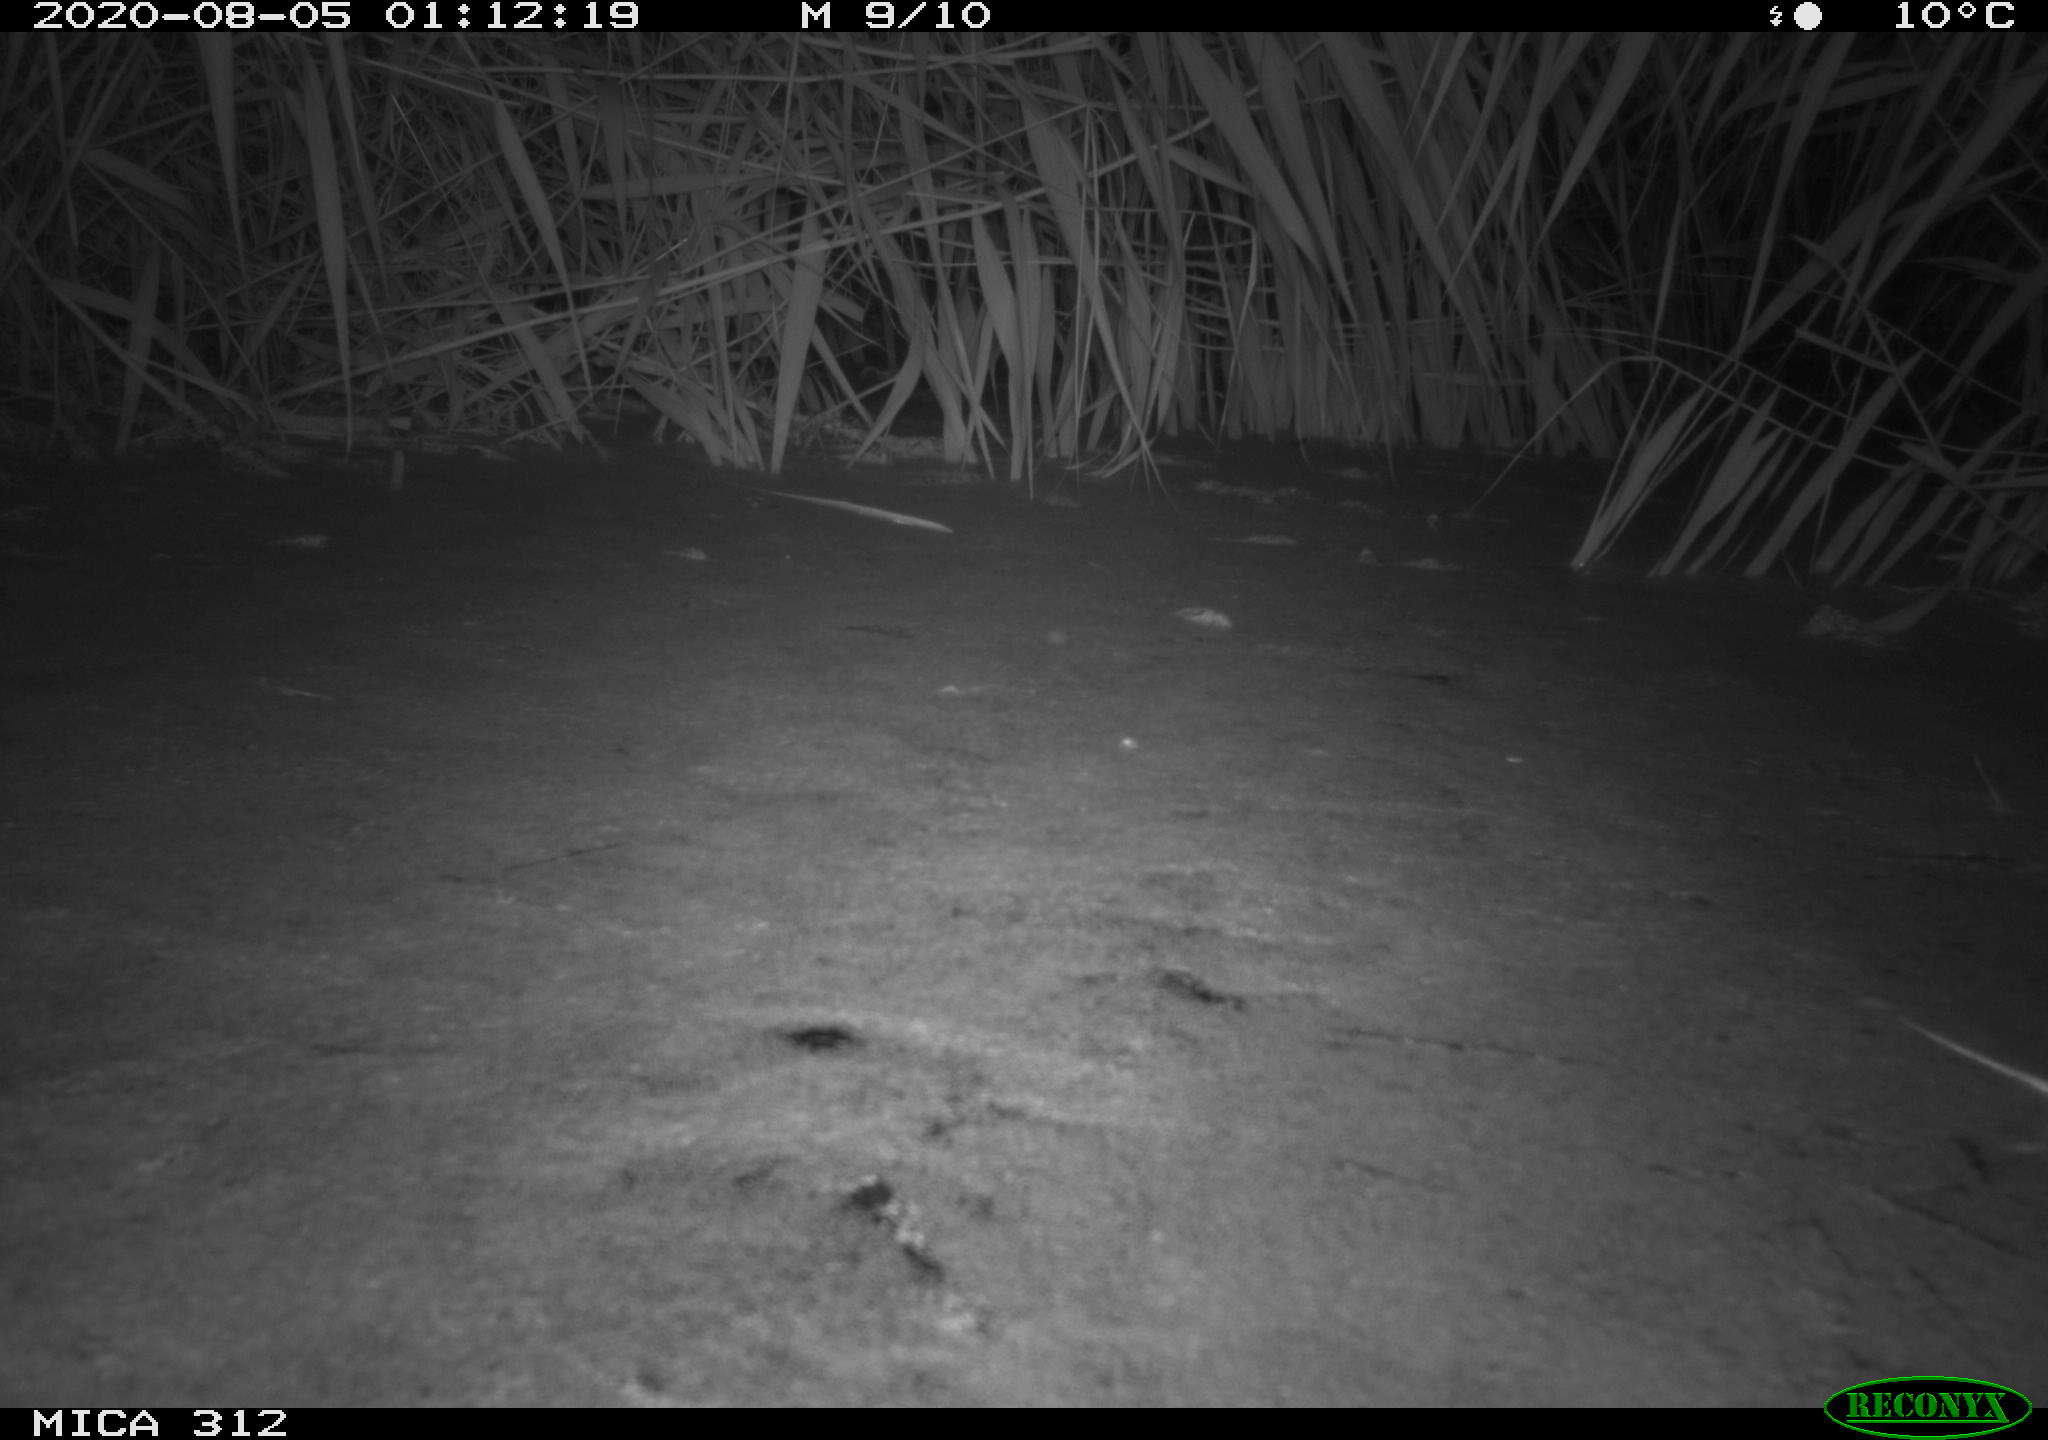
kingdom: Animalia
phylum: Chordata
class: Mammalia
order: Rodentia
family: Muridae
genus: Rattus
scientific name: Rattus norvegicus
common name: Brown rat
